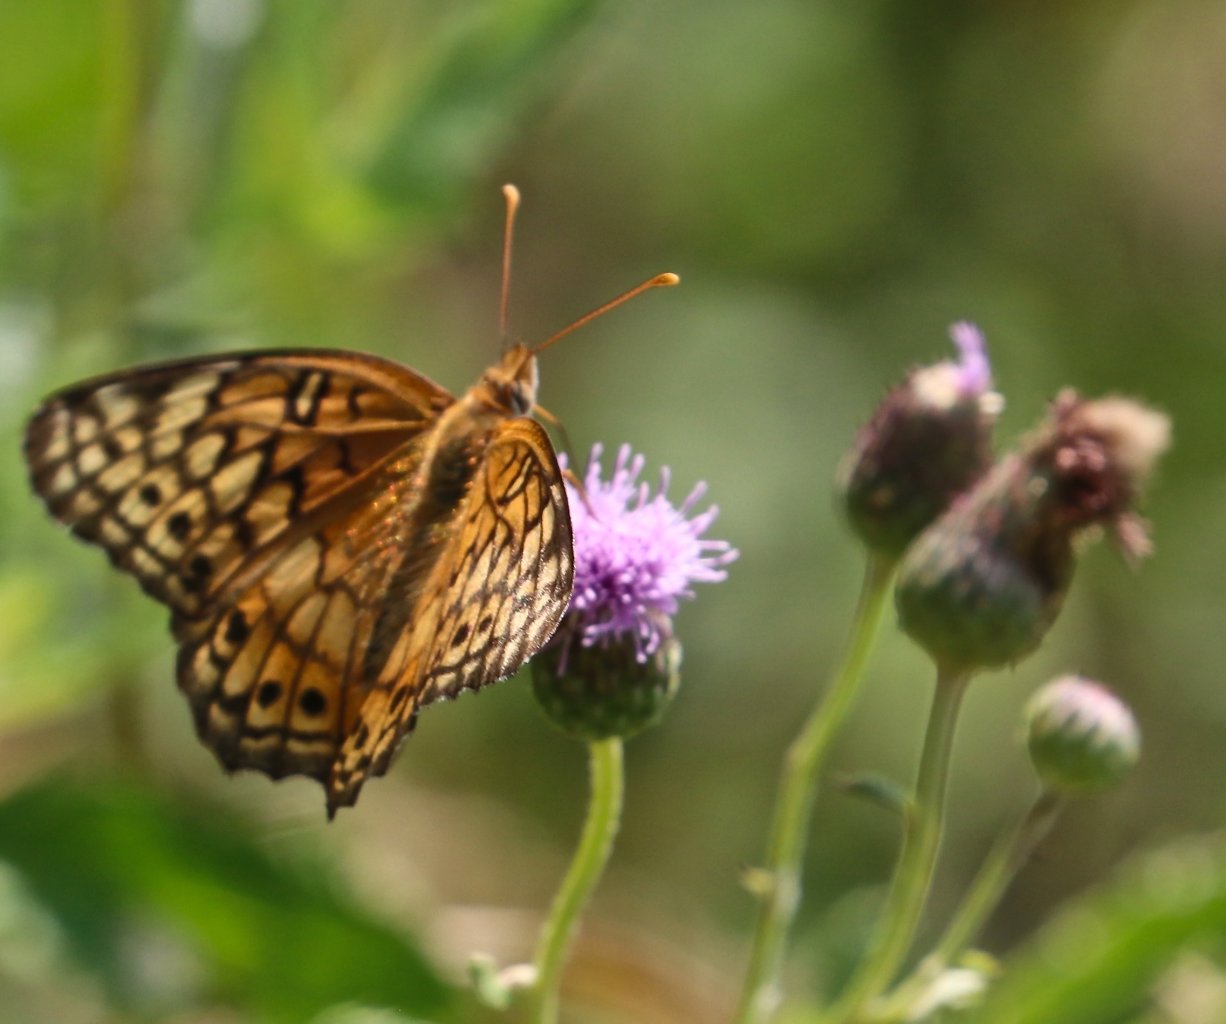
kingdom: Animalia
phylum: Arthropoda
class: Insecta
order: Lepidoptera
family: Nymphalidae
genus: Euptoieta
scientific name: Euptoieta claudia
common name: Variegated Fritillary
